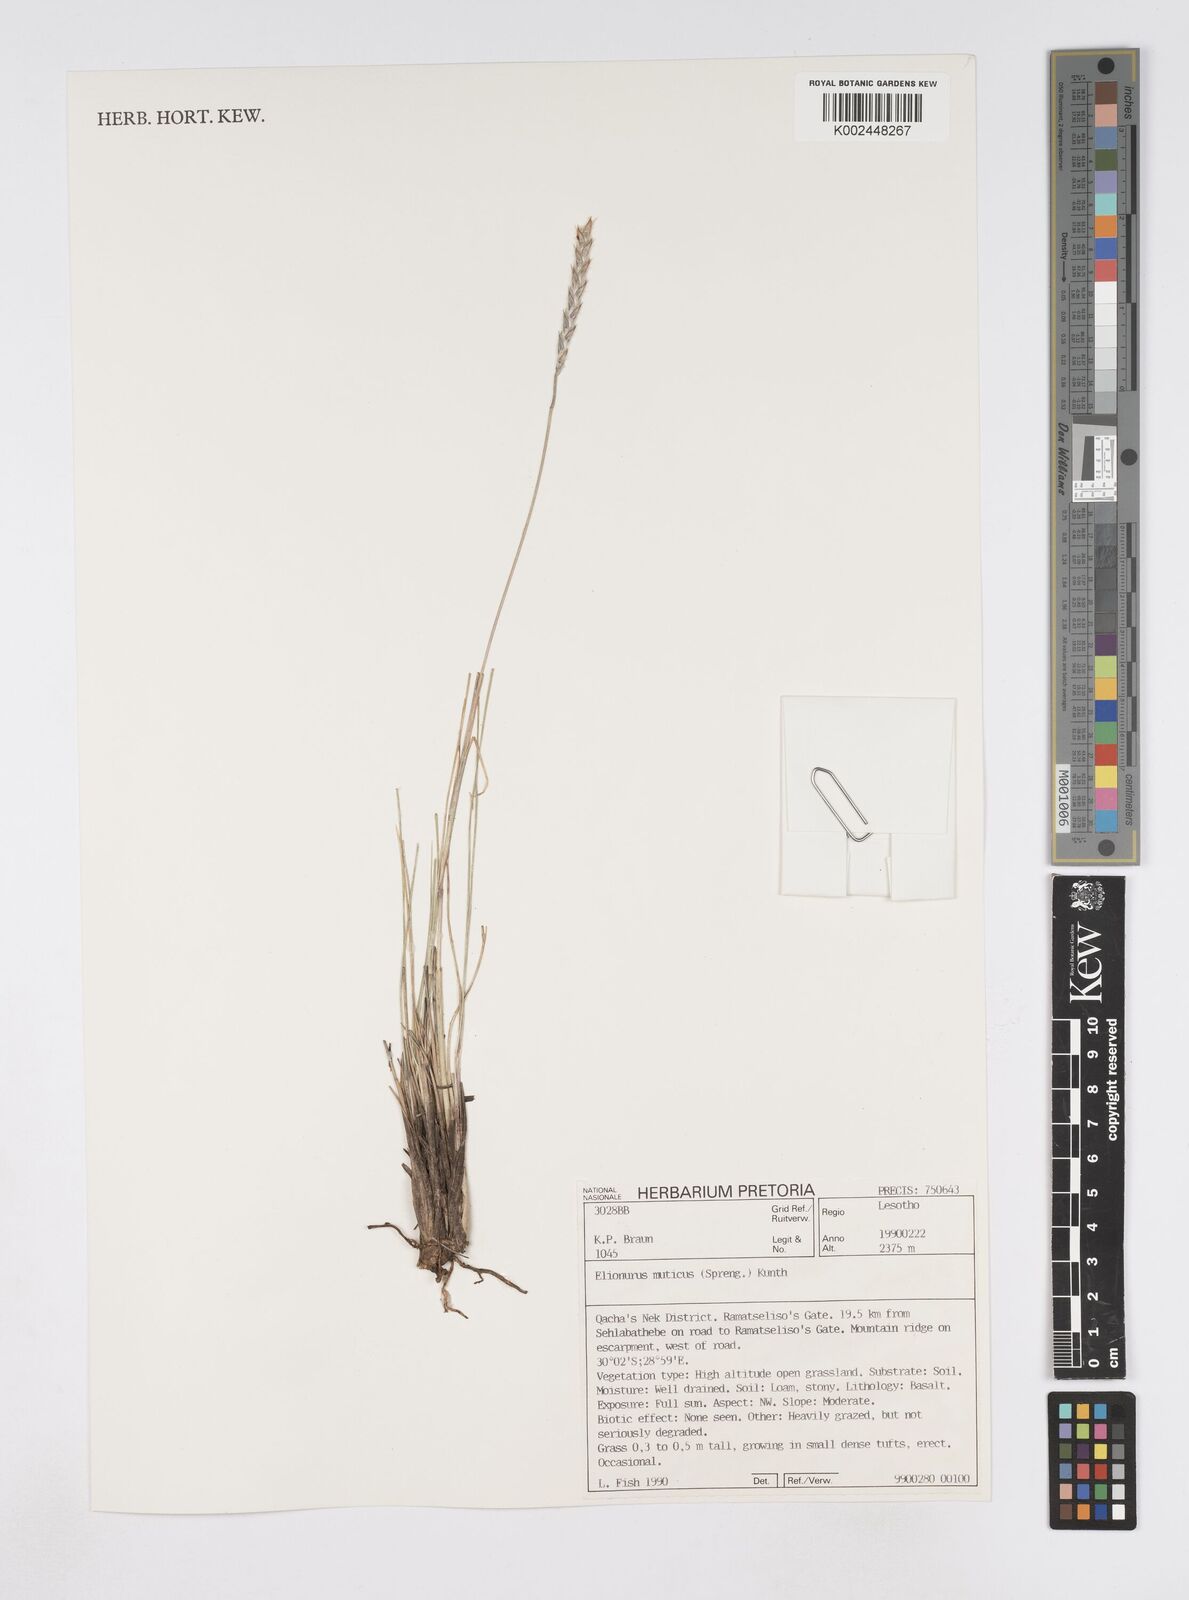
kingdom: Plantae
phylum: Tracheophyta
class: Liliopsida
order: Poales
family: Poaceae
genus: Elionurus
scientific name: Elionurus muticus
